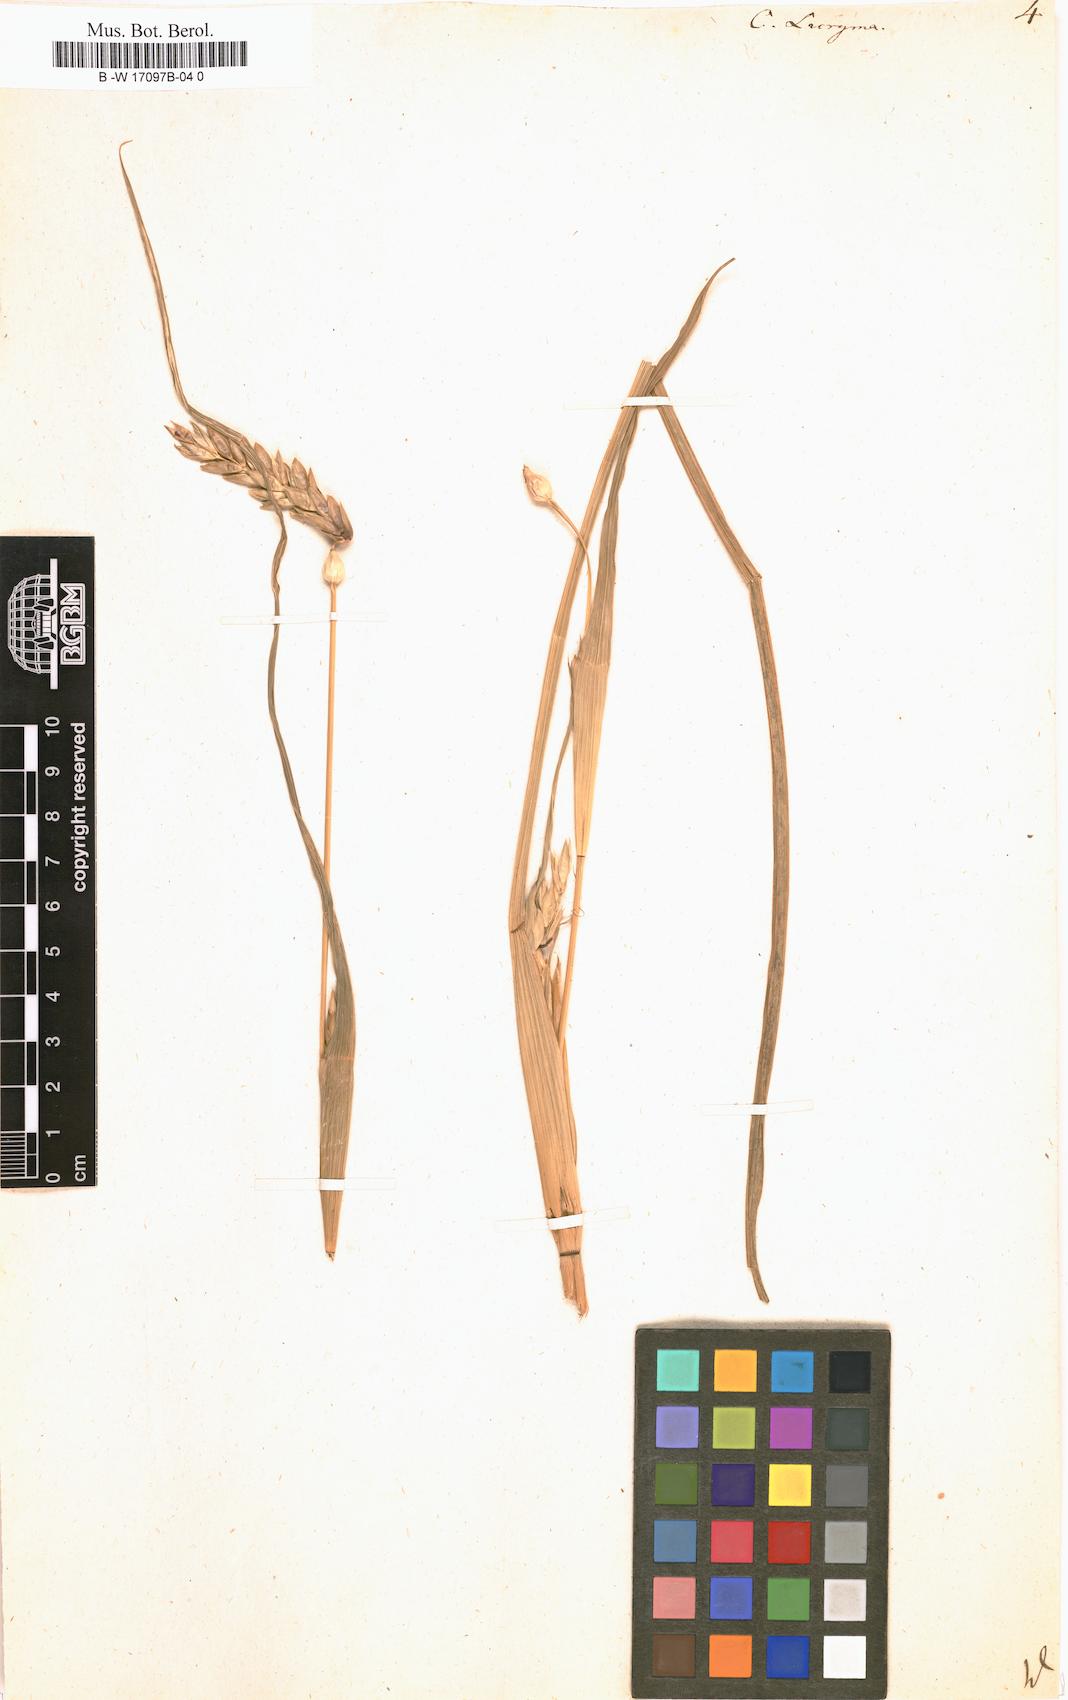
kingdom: Plantae
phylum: Tracheophyta
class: Liliopsida
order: Poales
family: Poaceae
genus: Coix
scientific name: Coix lacryma-jobi
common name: Job's tears
